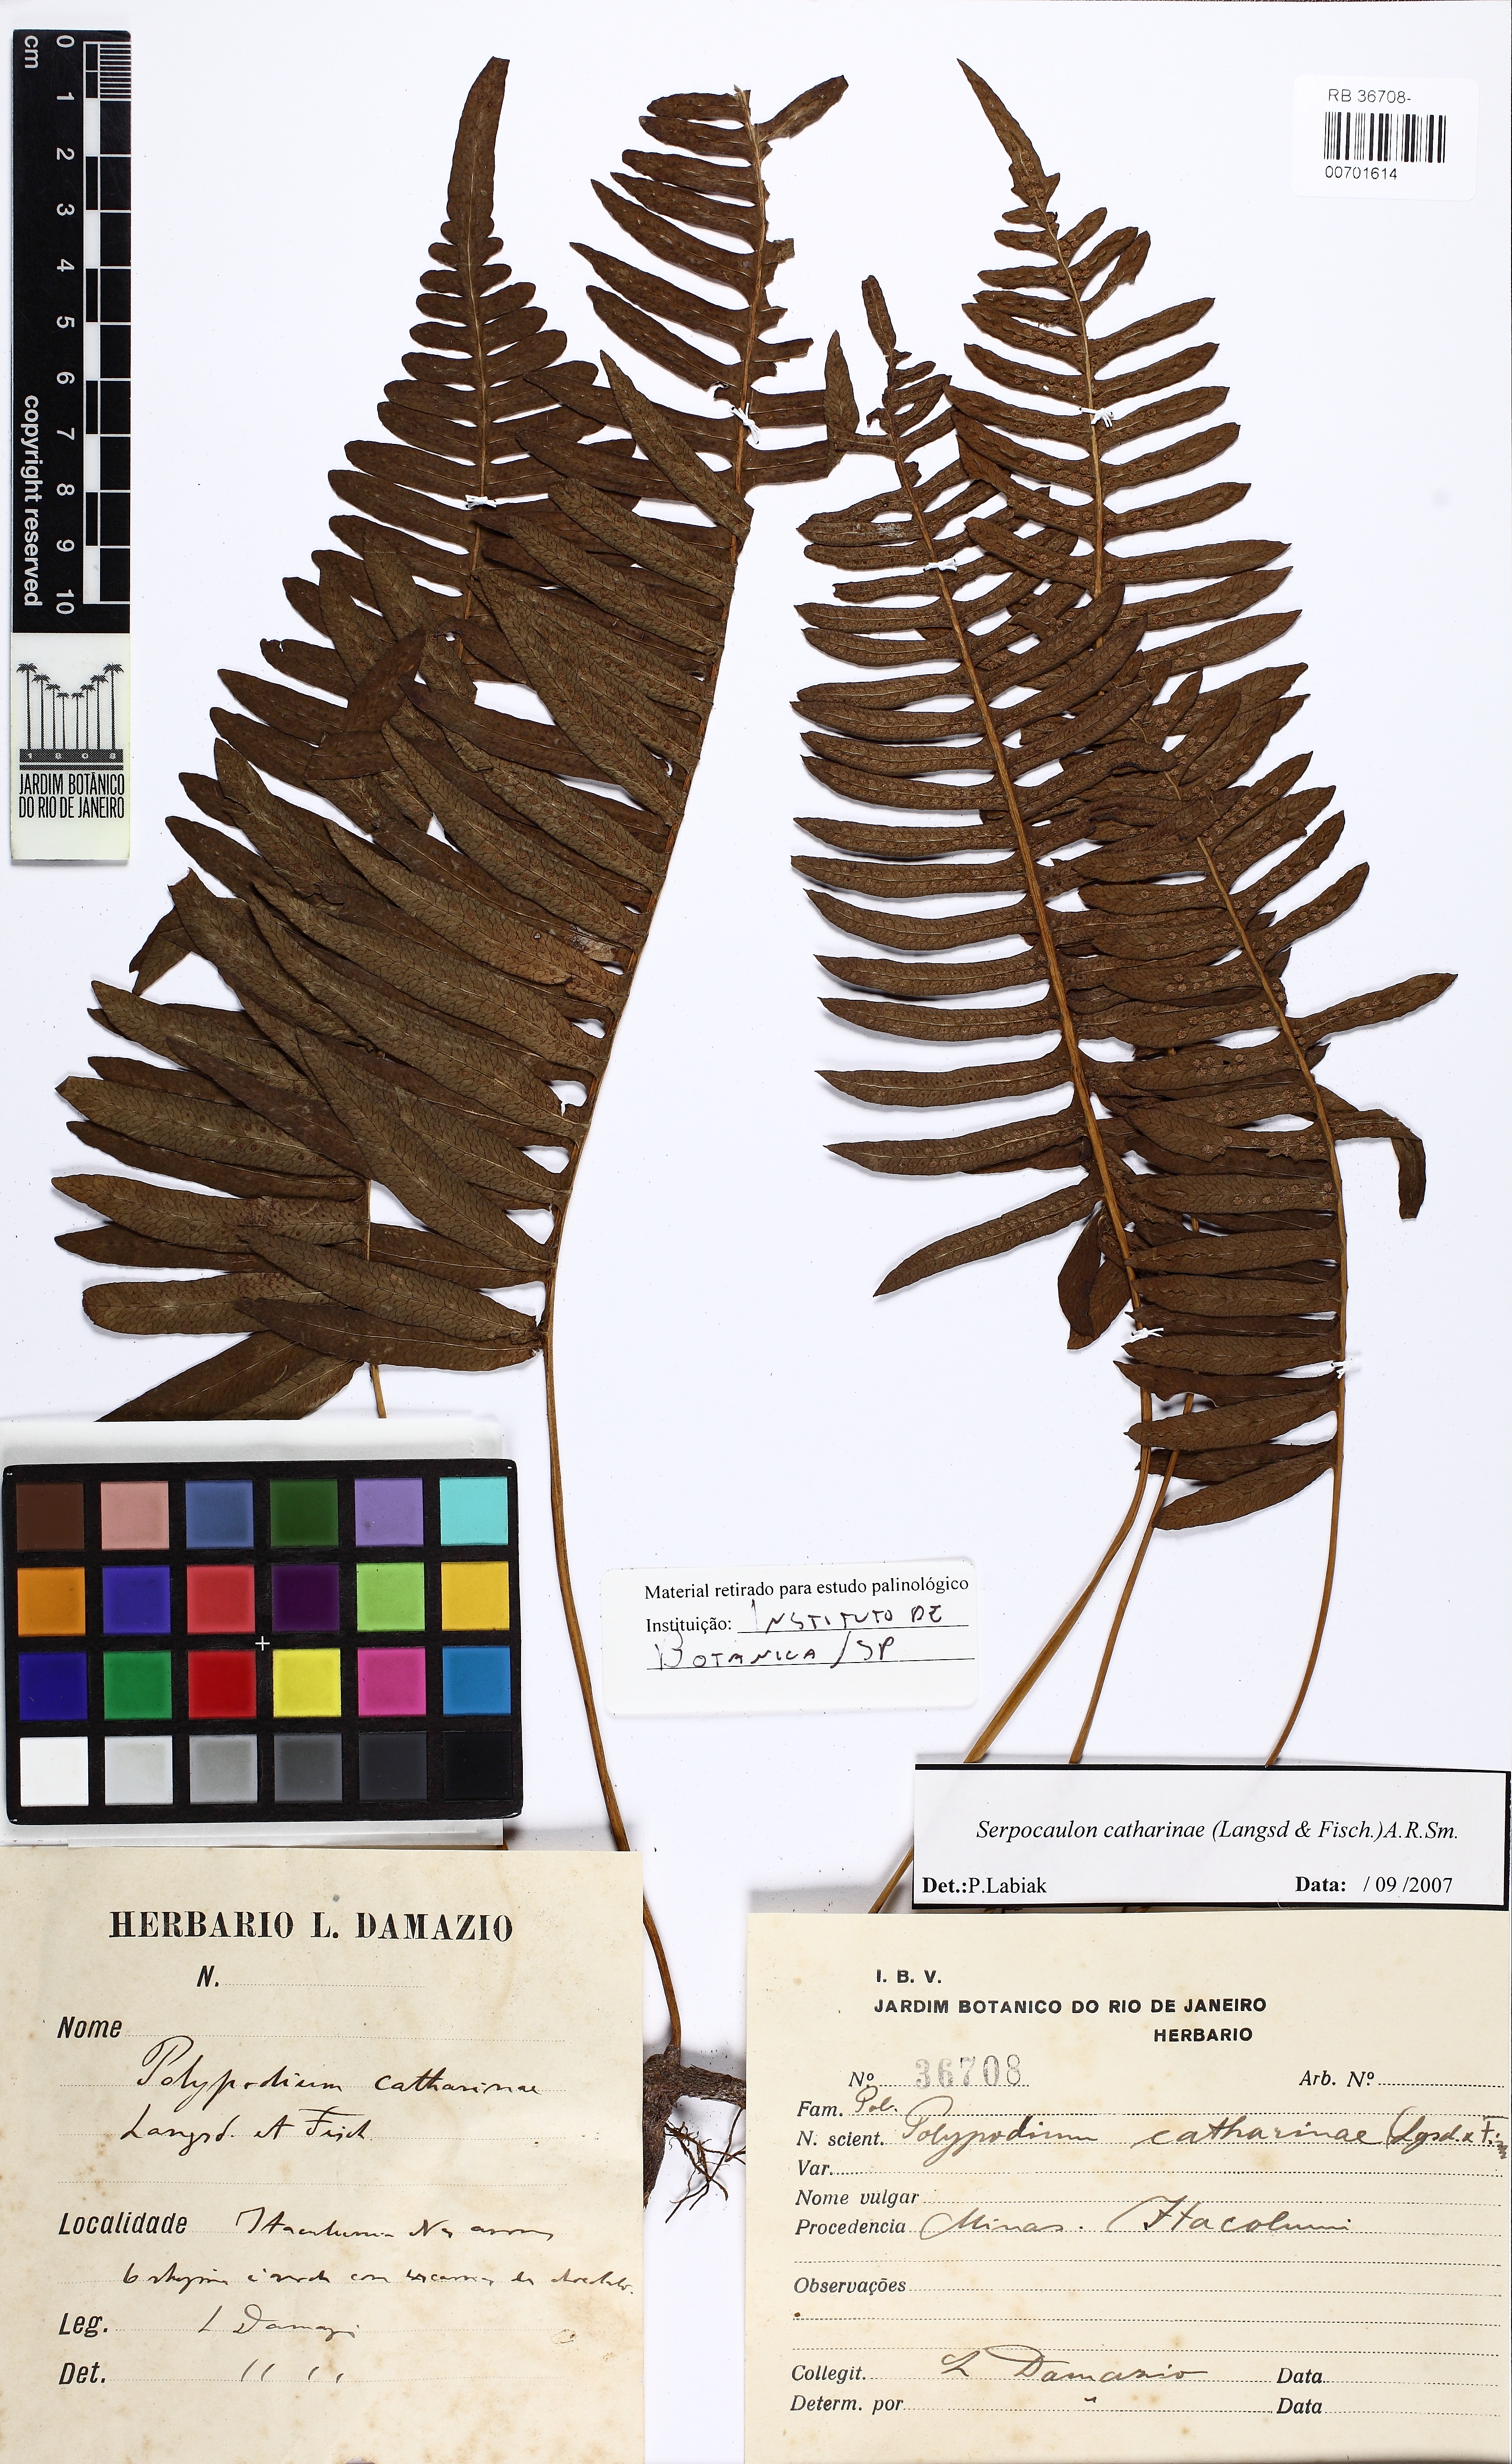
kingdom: Plantae
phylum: Tracheophyta
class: Polypodiopsida
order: Polypodiales
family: Polypodiaceae
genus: Serpocaulon
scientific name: Serpocaulon catharinae
